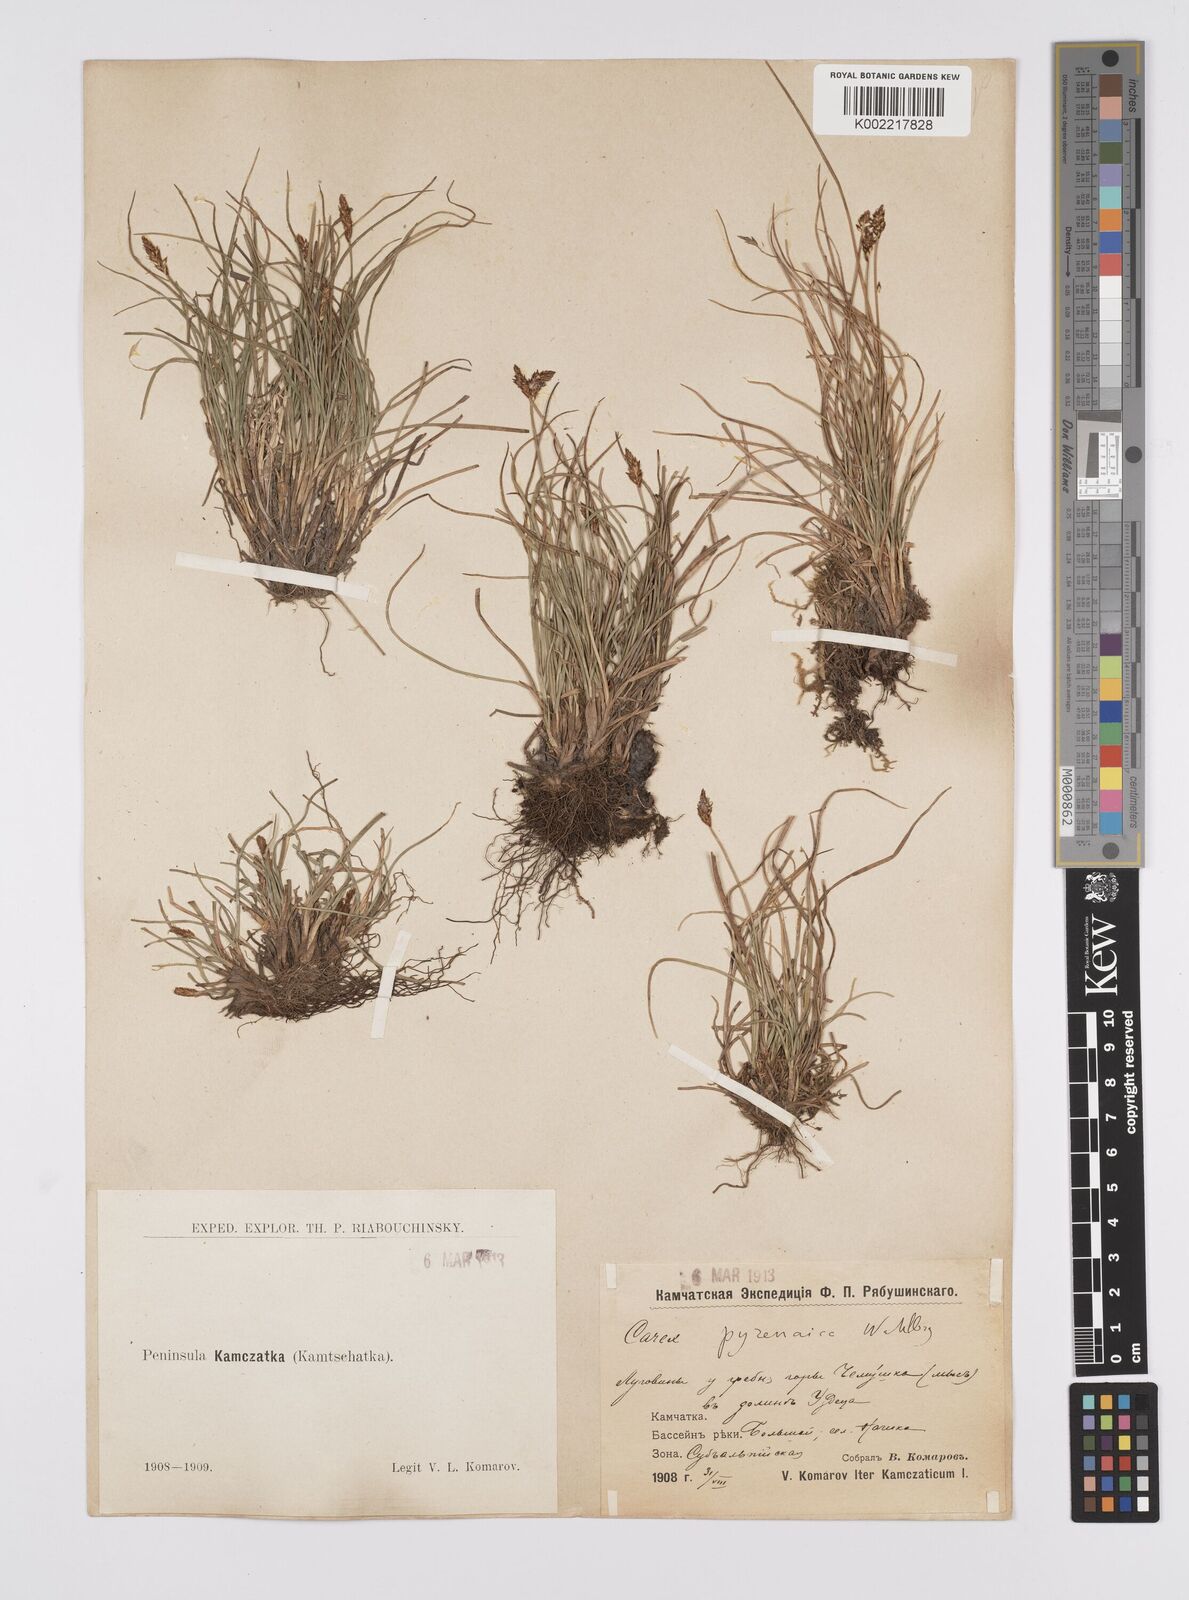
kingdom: Plantae
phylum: Tracheophyta
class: Liliopsida
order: Poales
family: Cyperaceae
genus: Carex
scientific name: Carex pyrenaica
